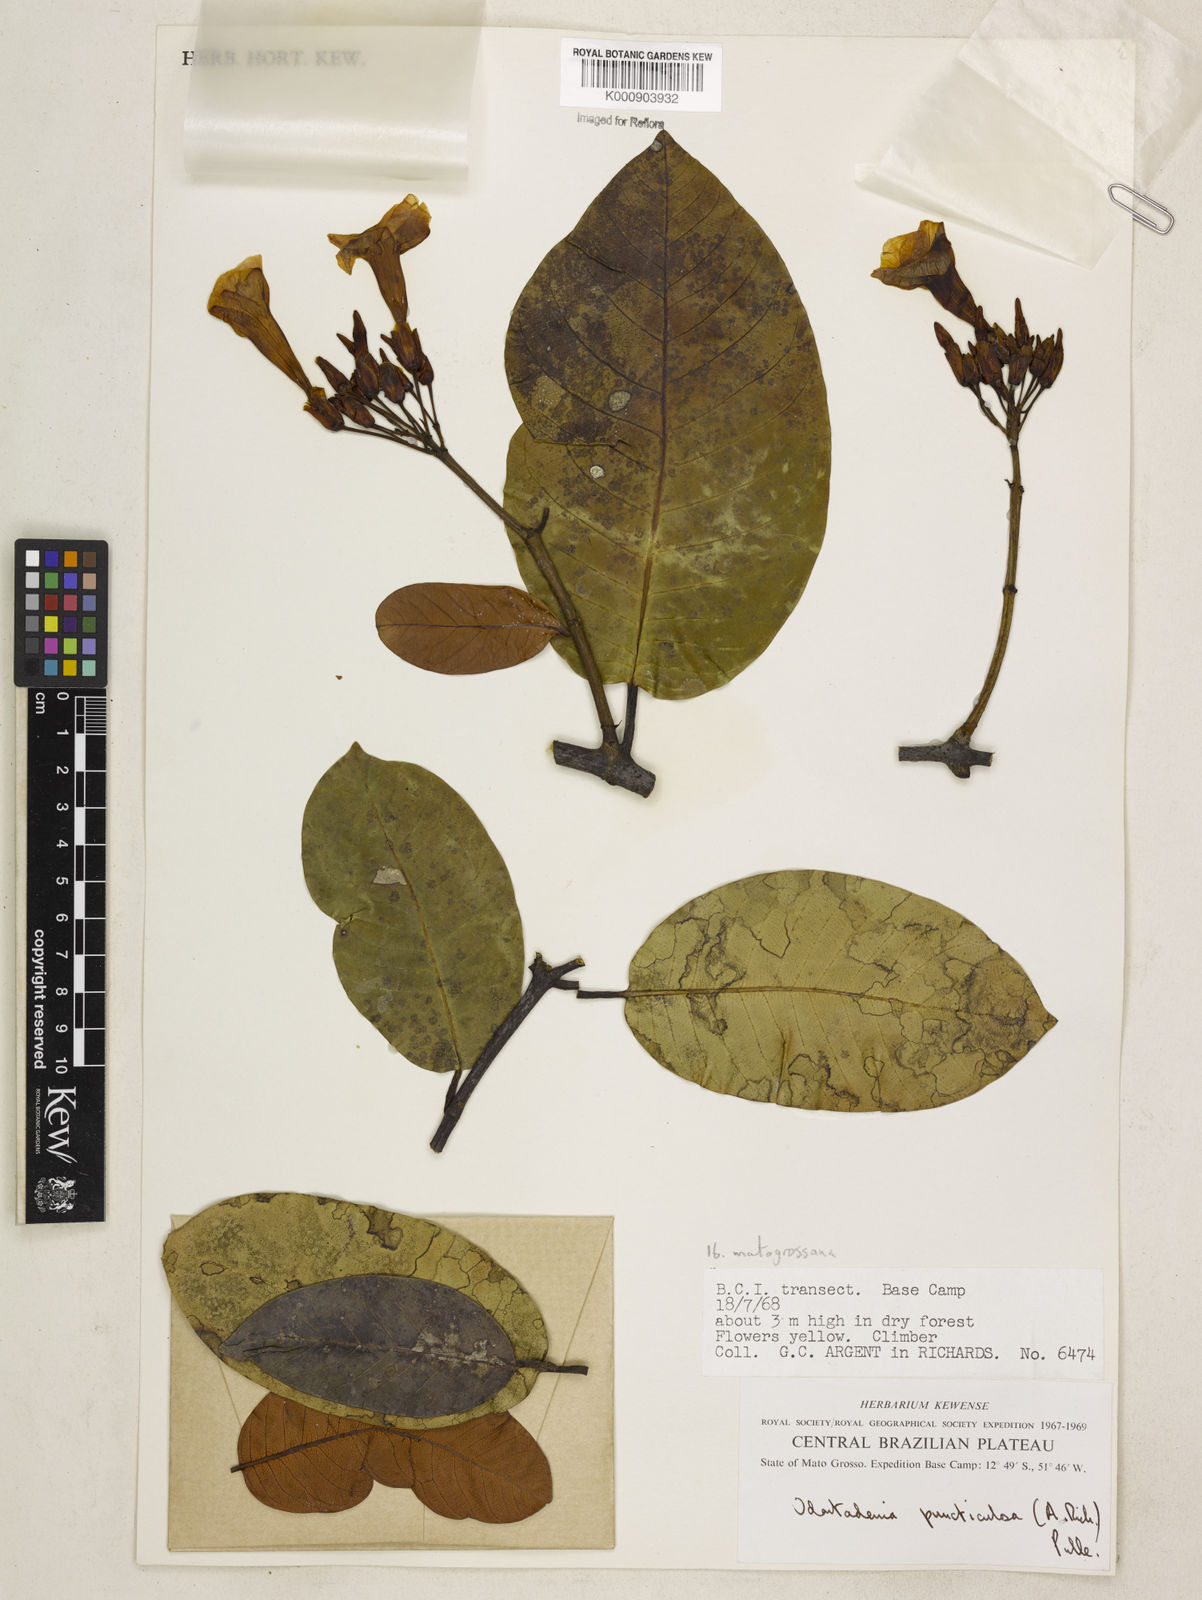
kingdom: Plantae
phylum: Tracheophyta
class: Magnoliopsida
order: Gentianales
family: Apocynaceae
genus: Odontadenia
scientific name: Odontadenia matogrossana
